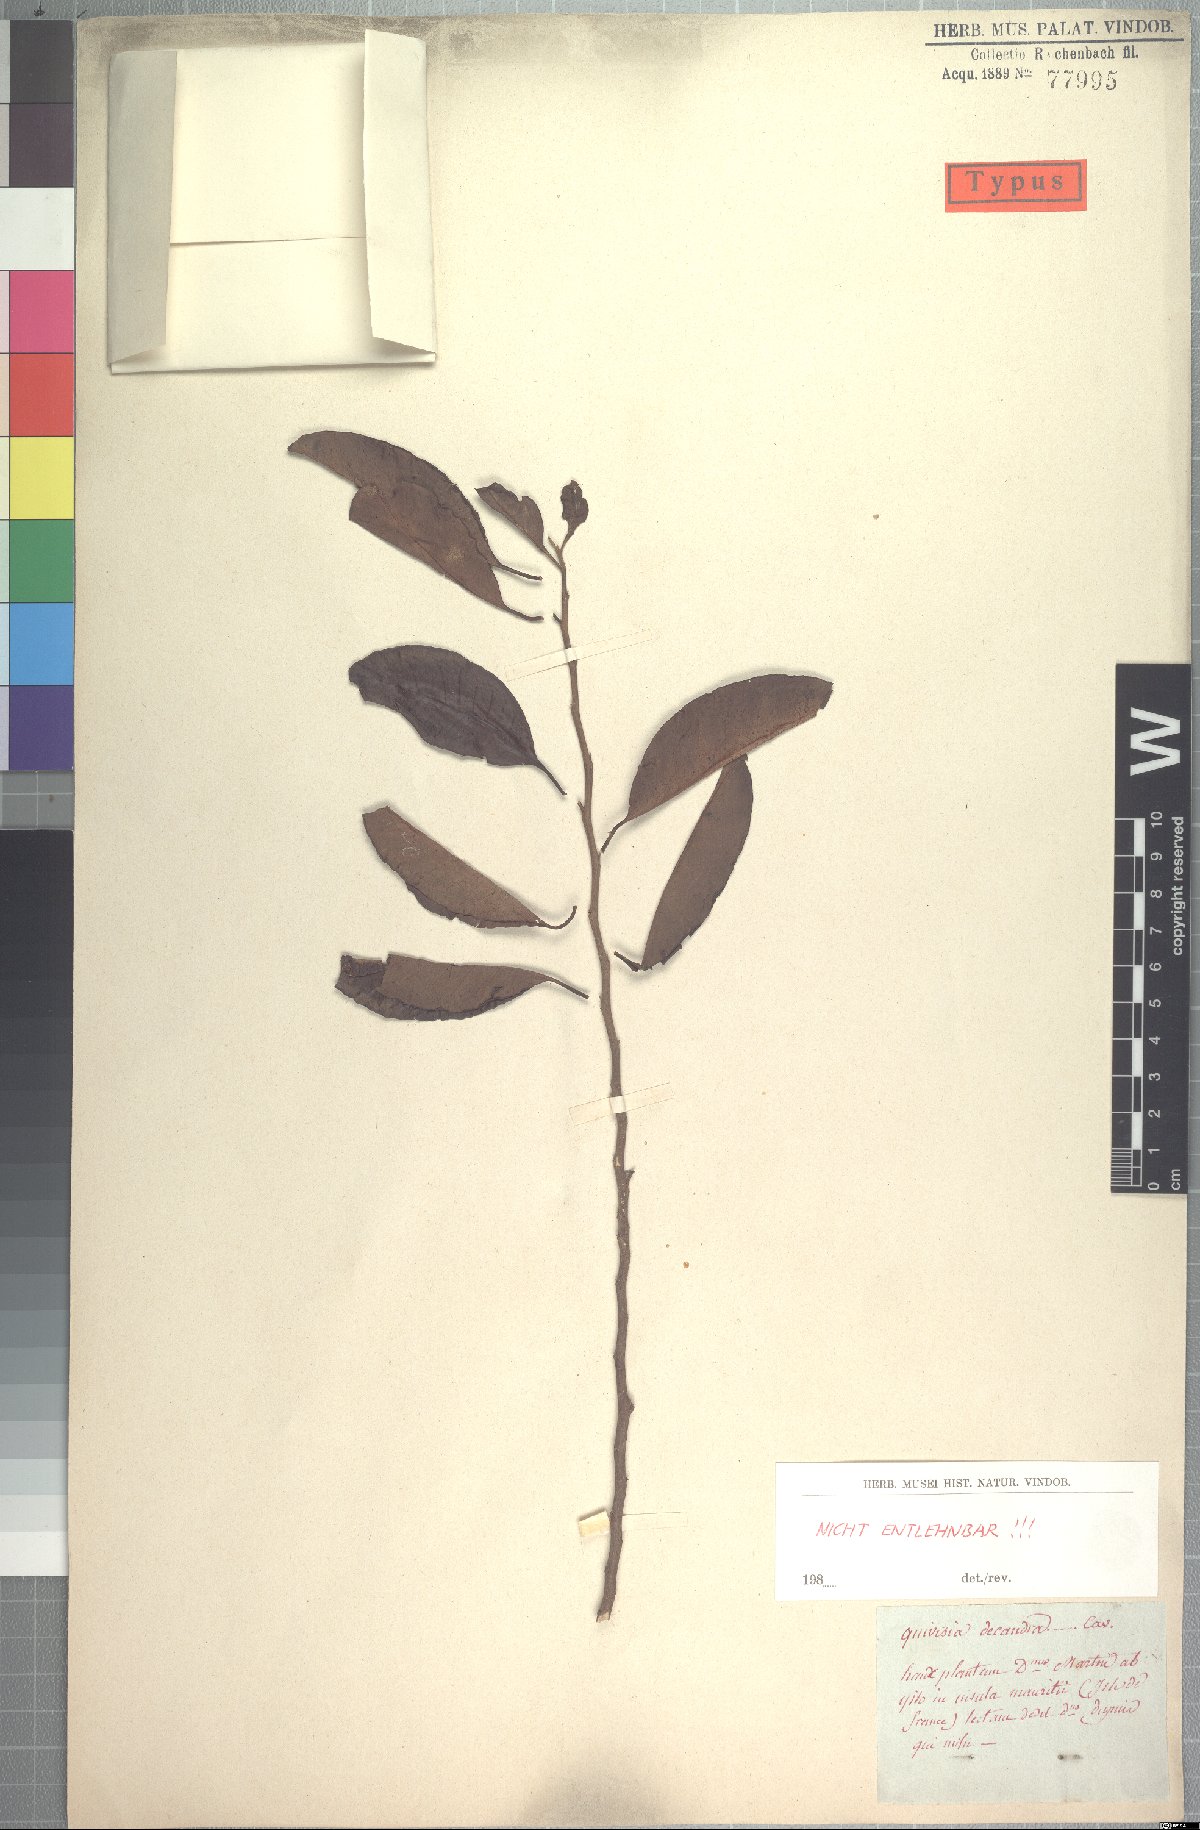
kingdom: Plantae
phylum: Tracheophyta
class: Magnoliopsida
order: Sapindales
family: Meliaceae
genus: Turraea
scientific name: Turraea rutilans
